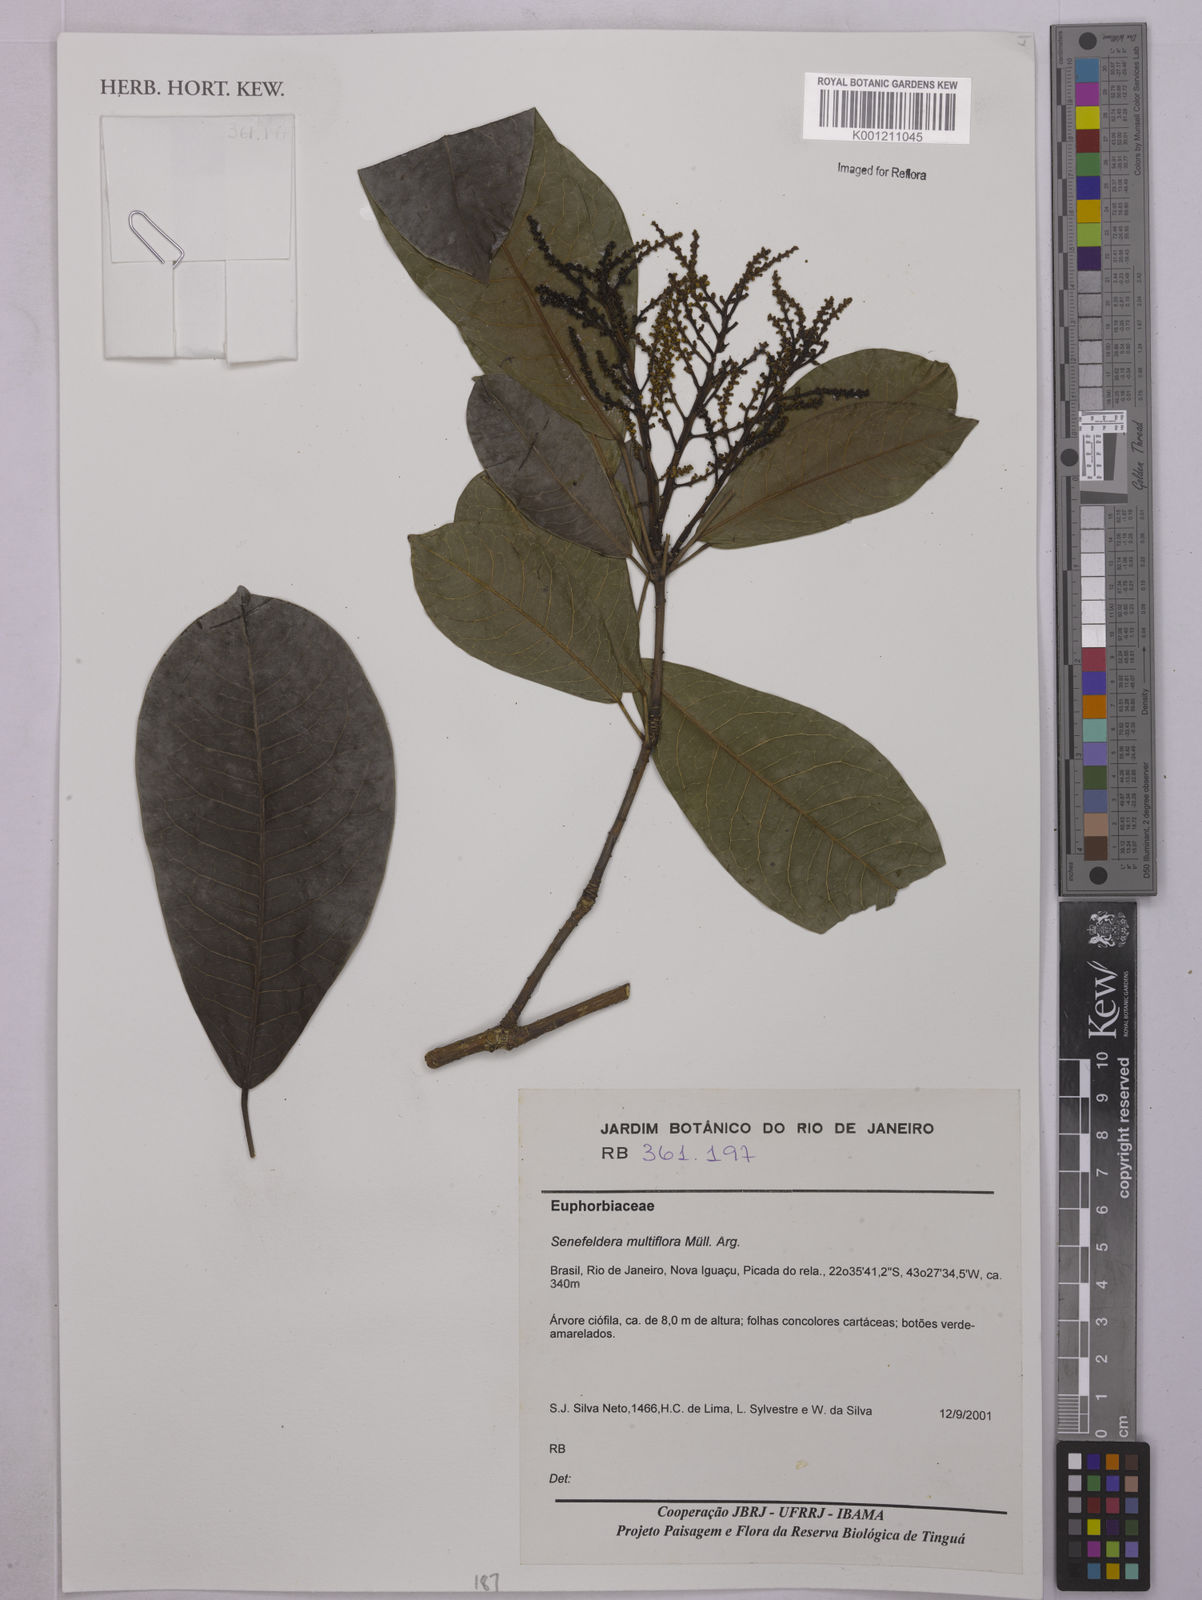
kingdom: Plantae
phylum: Tracheophyta
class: Magnoliopsida
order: Malpighiales
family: Euphorbiaceae
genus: Senefeldera
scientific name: Senefeldera verticillata
